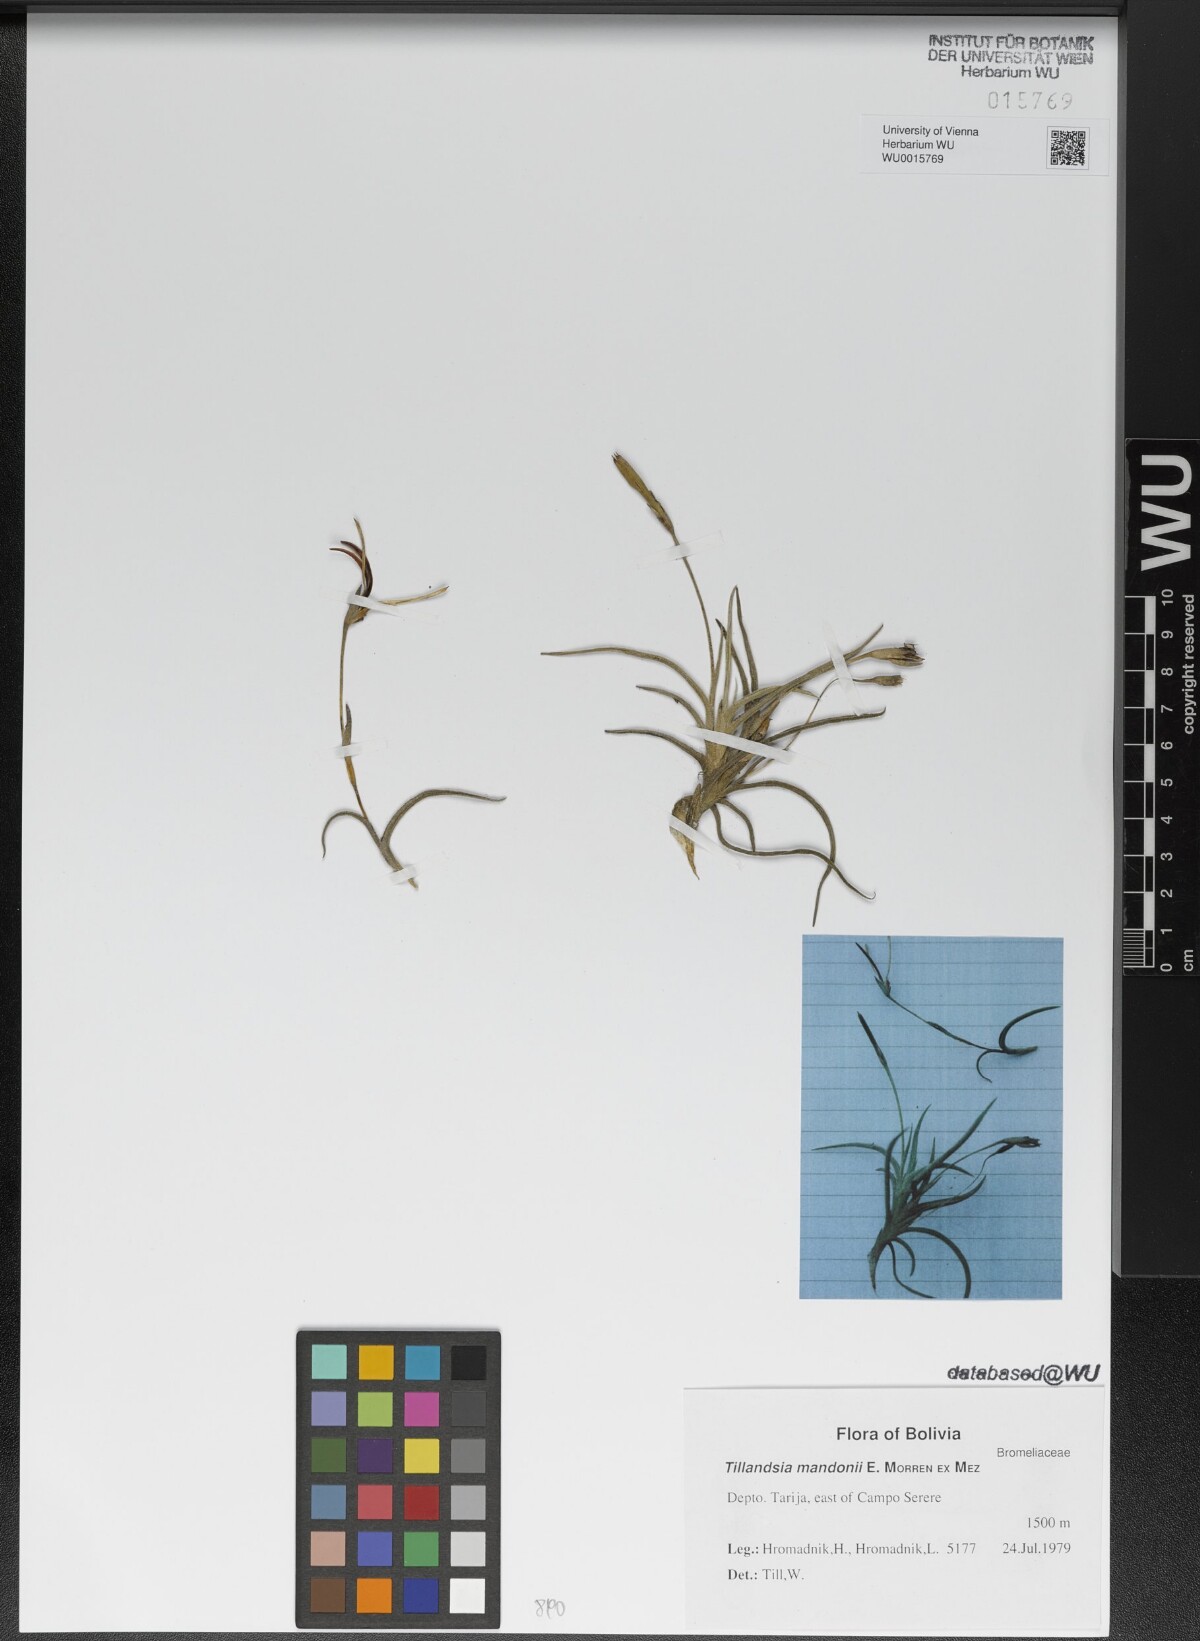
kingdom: Plantae
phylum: Tracheophyta
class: Liliopsida
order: Poales
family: Bromeliaceae
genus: Tillandsia
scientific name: Tillandsia crocata
